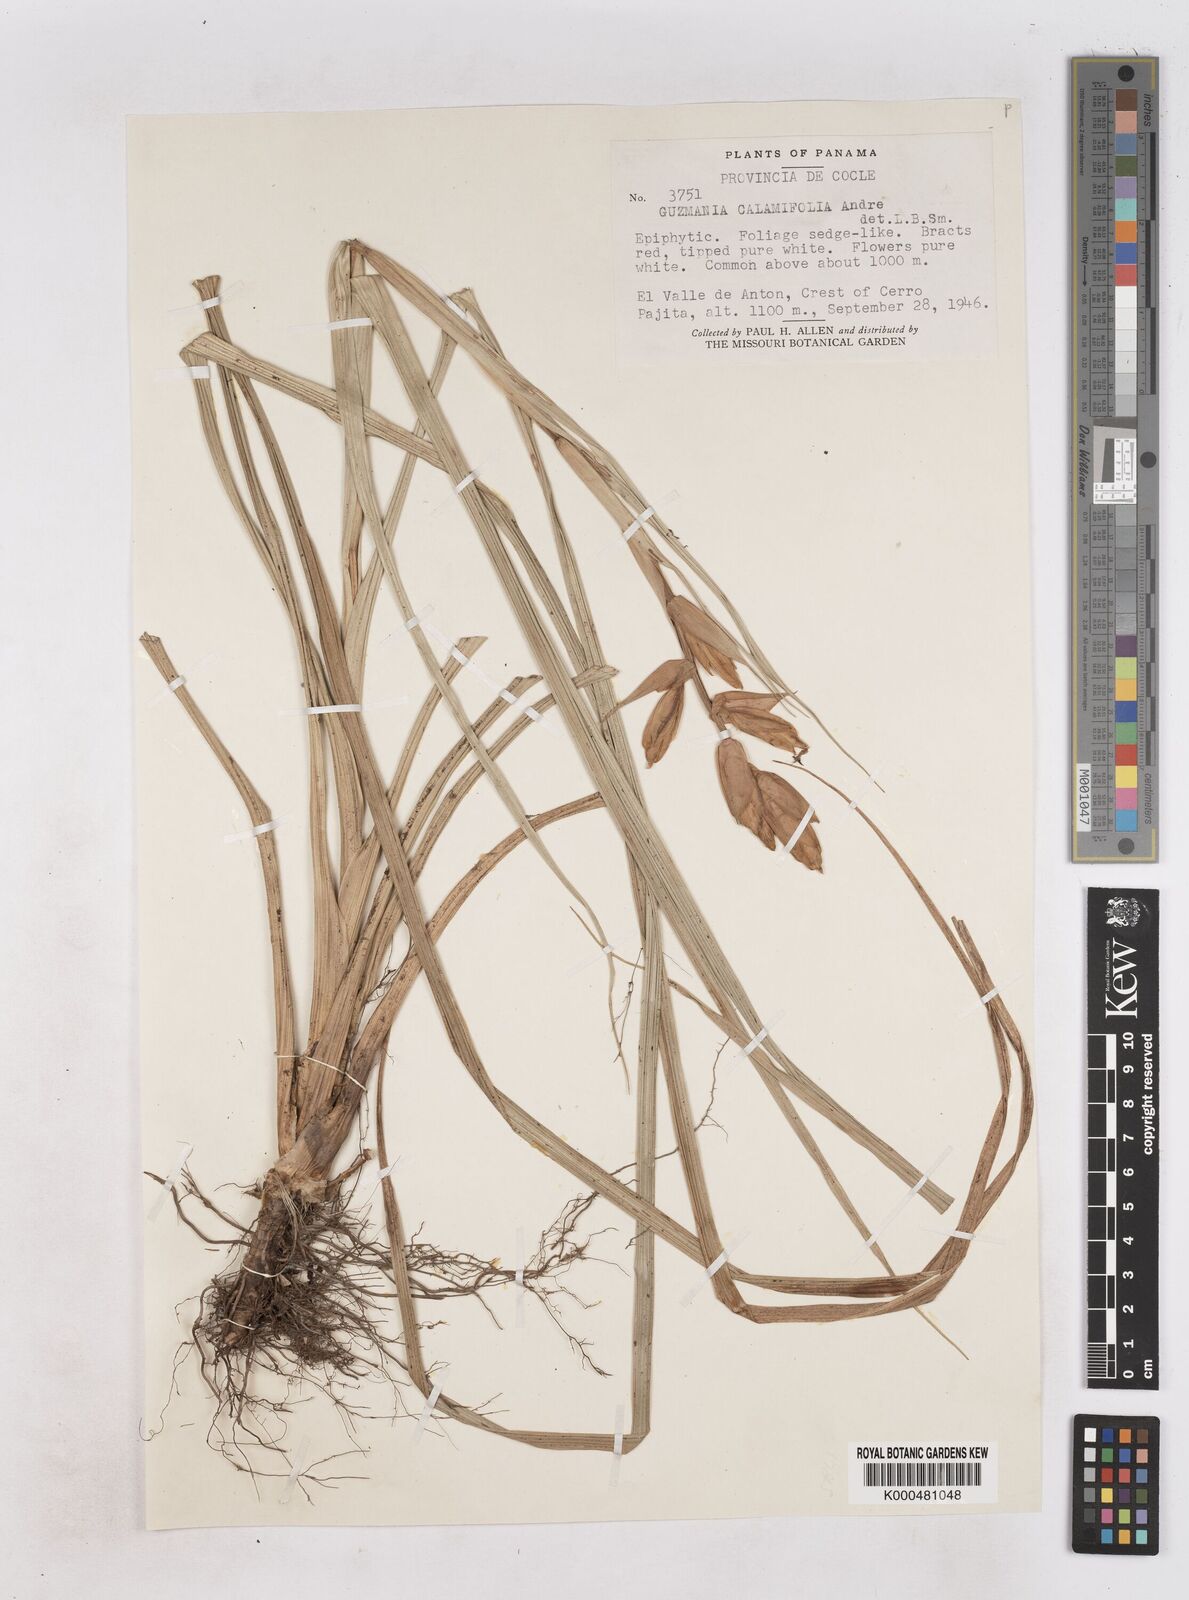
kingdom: Plantae
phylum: Tracheophyta
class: Liliopsida
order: Poales
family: Bromeliaceae
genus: Guzmania
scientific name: Guzmania
